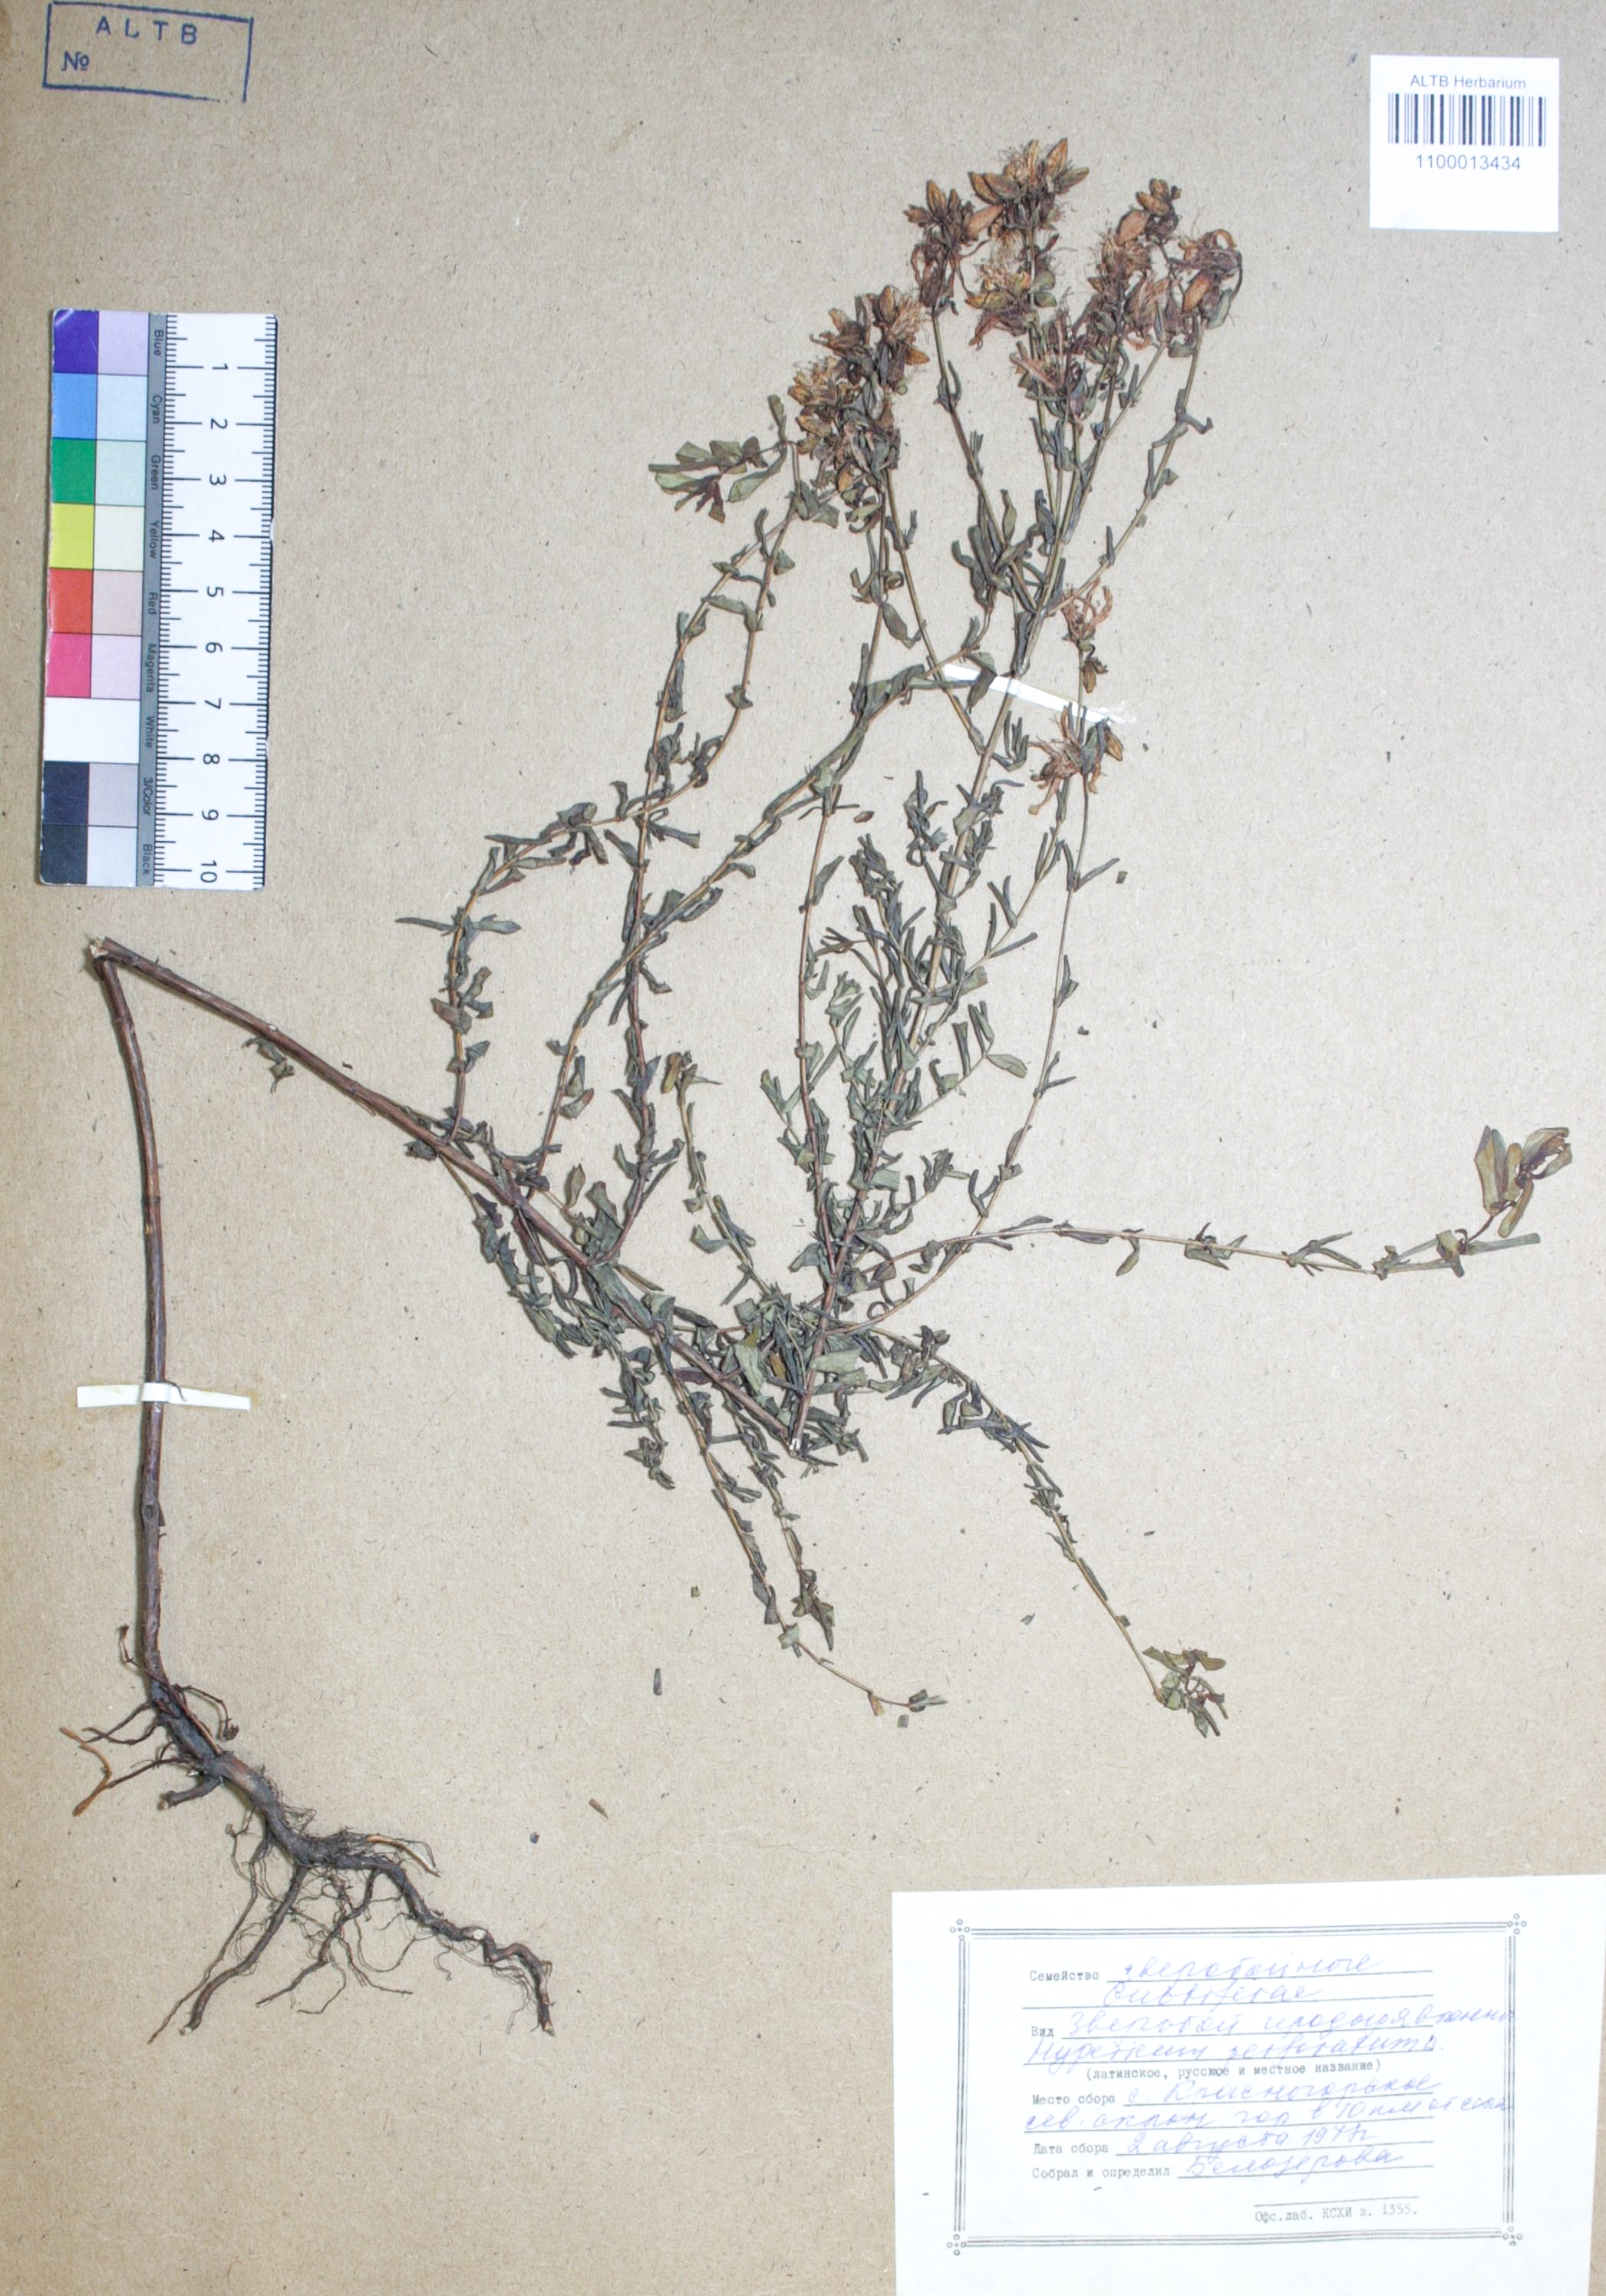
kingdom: Plantae
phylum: Tracheophyta
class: Magnoliopsida
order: Malpighiales
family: Hypericaceae
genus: Hypericum
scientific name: Hypericum perforatum
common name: Common st. johnswort
